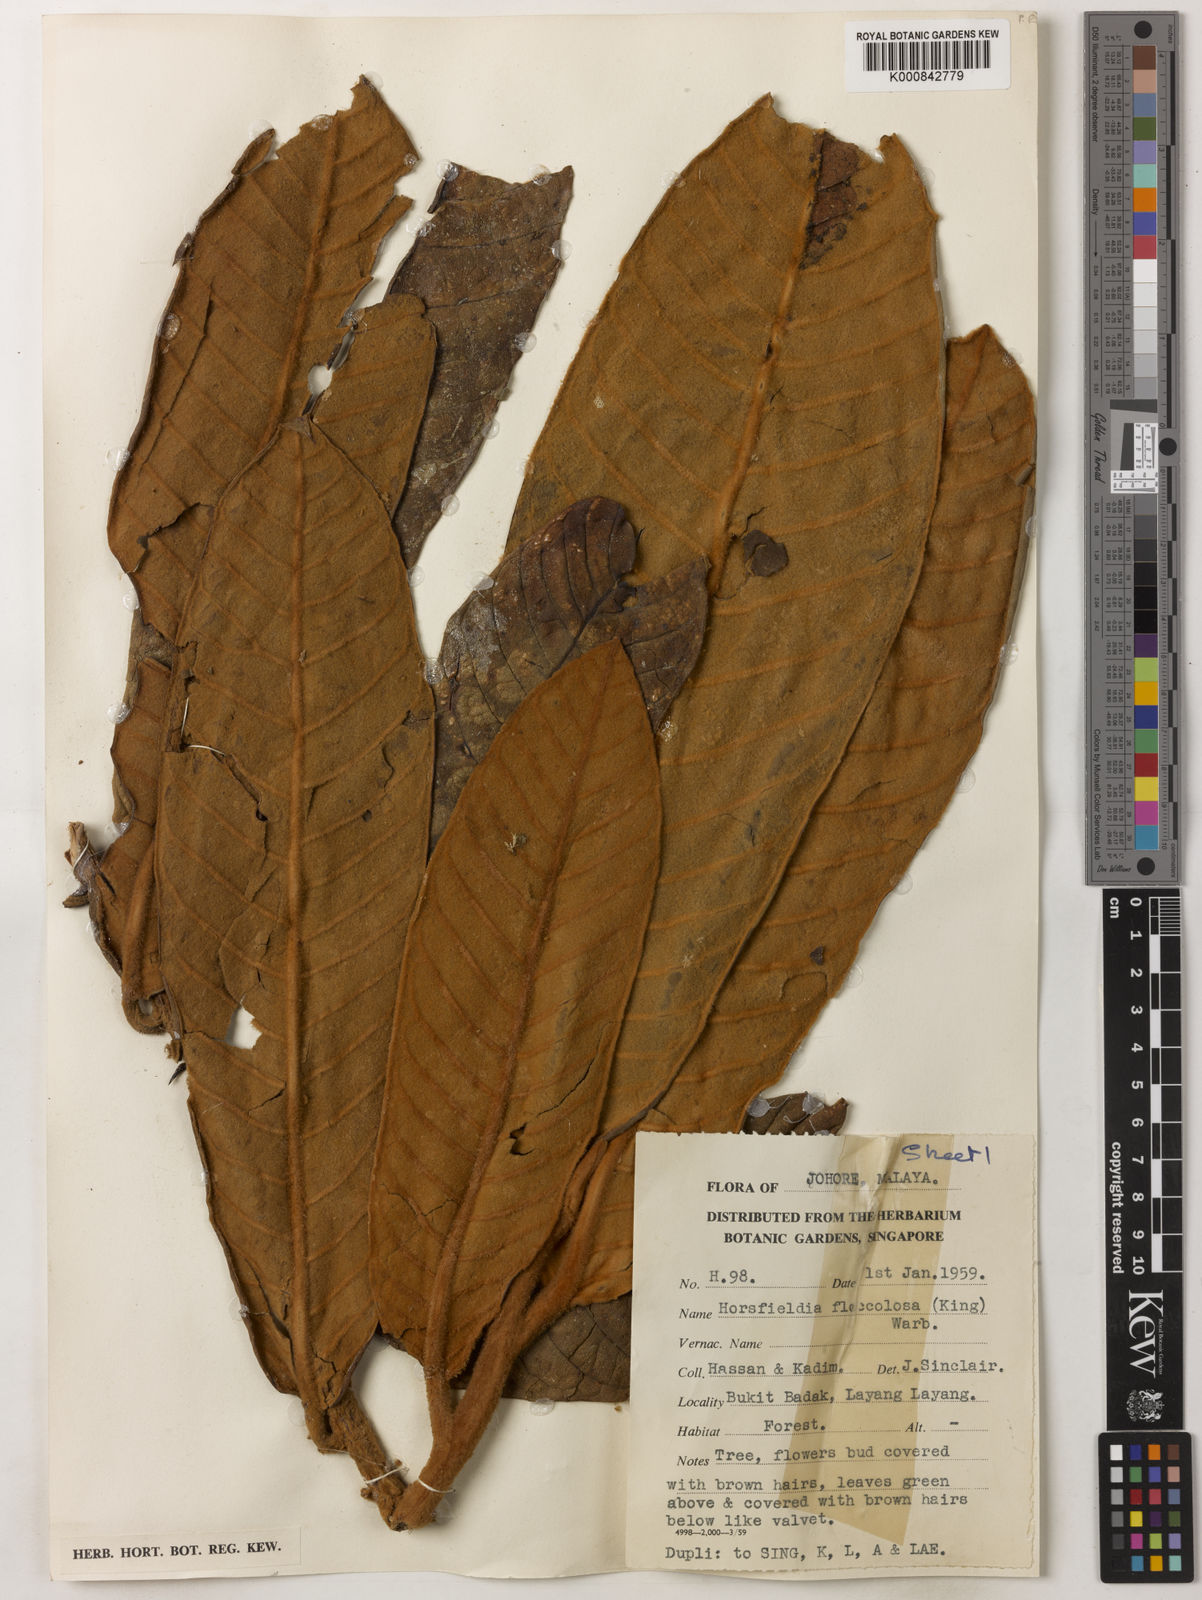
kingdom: Plantae
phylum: Tracheophyta
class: Magnoliopsida
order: Magnoliales
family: Myristicaceae
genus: Horsfieldia
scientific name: Horsfieldia flocculosa
